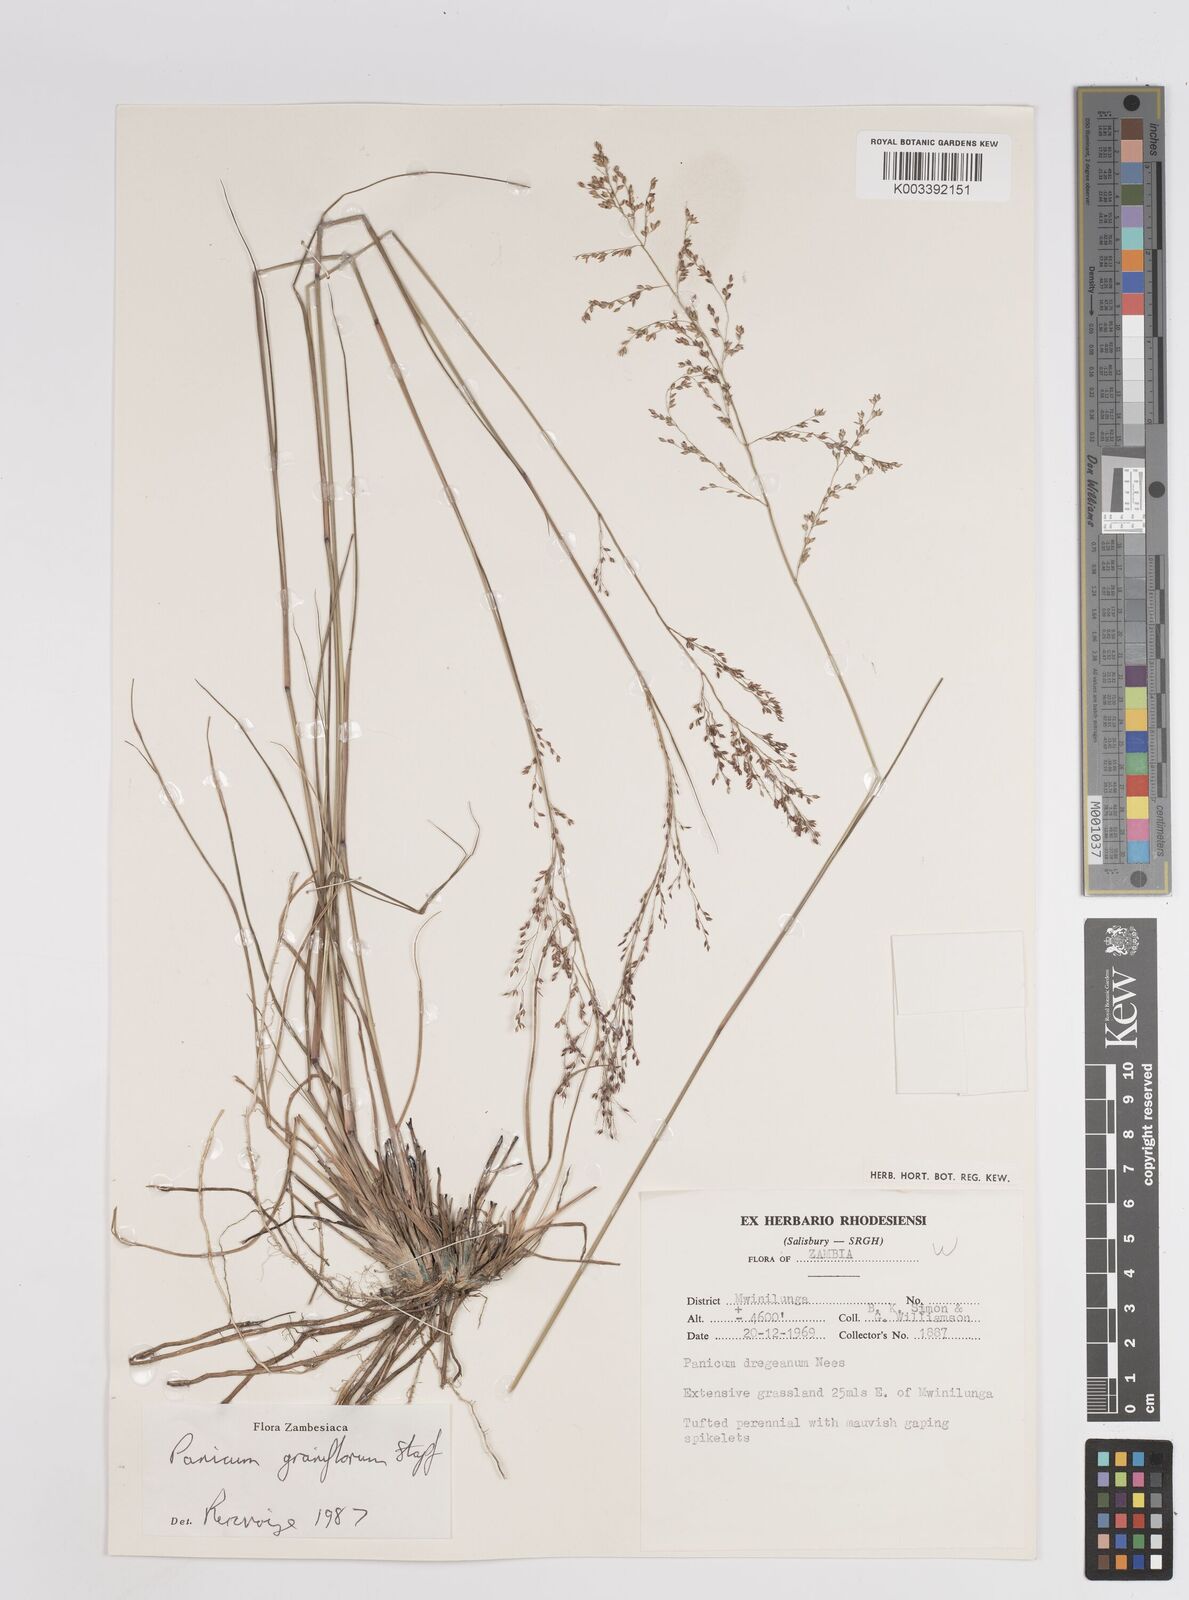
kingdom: Plantae
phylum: Tracheophyta
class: Liliopsida
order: Poales
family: Poaceae
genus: Panicum
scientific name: Panicum graniflorum
